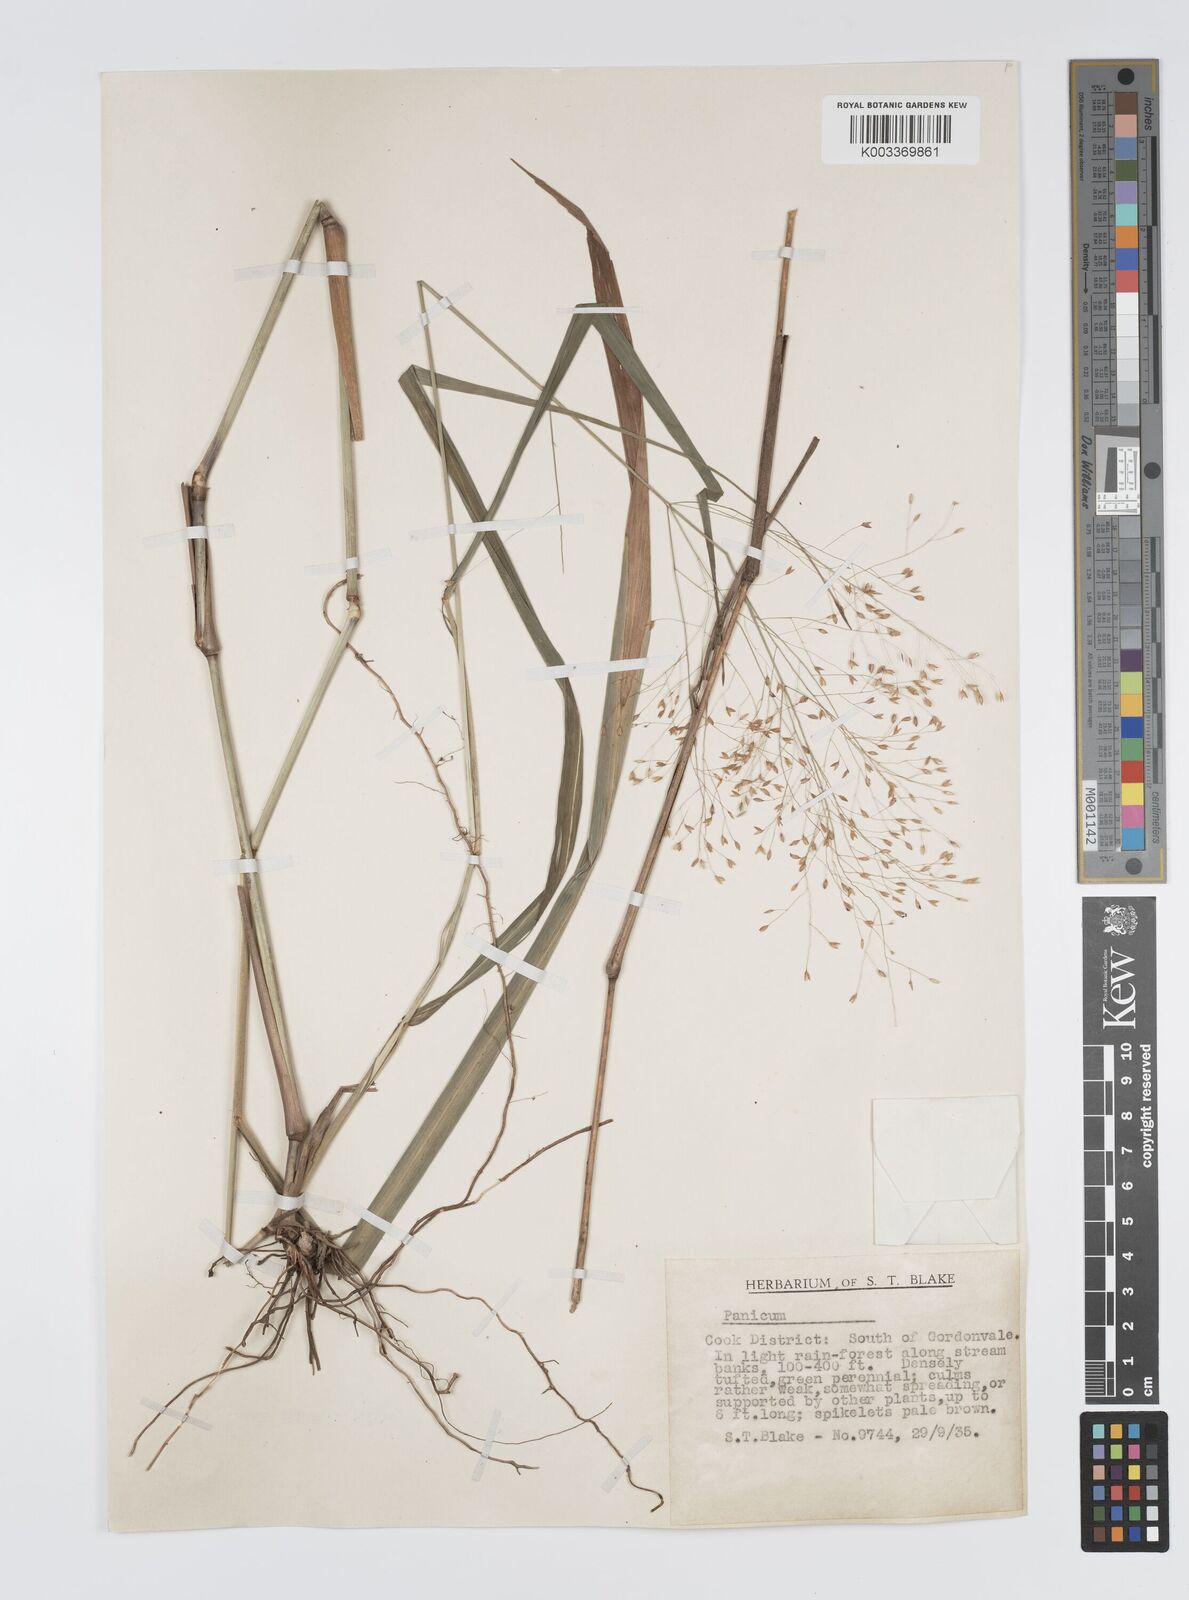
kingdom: Plantae
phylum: Tracheophyta
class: Liliopsida
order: Poales
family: Poaceae
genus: Panicum
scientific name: Panicum mitchellii
